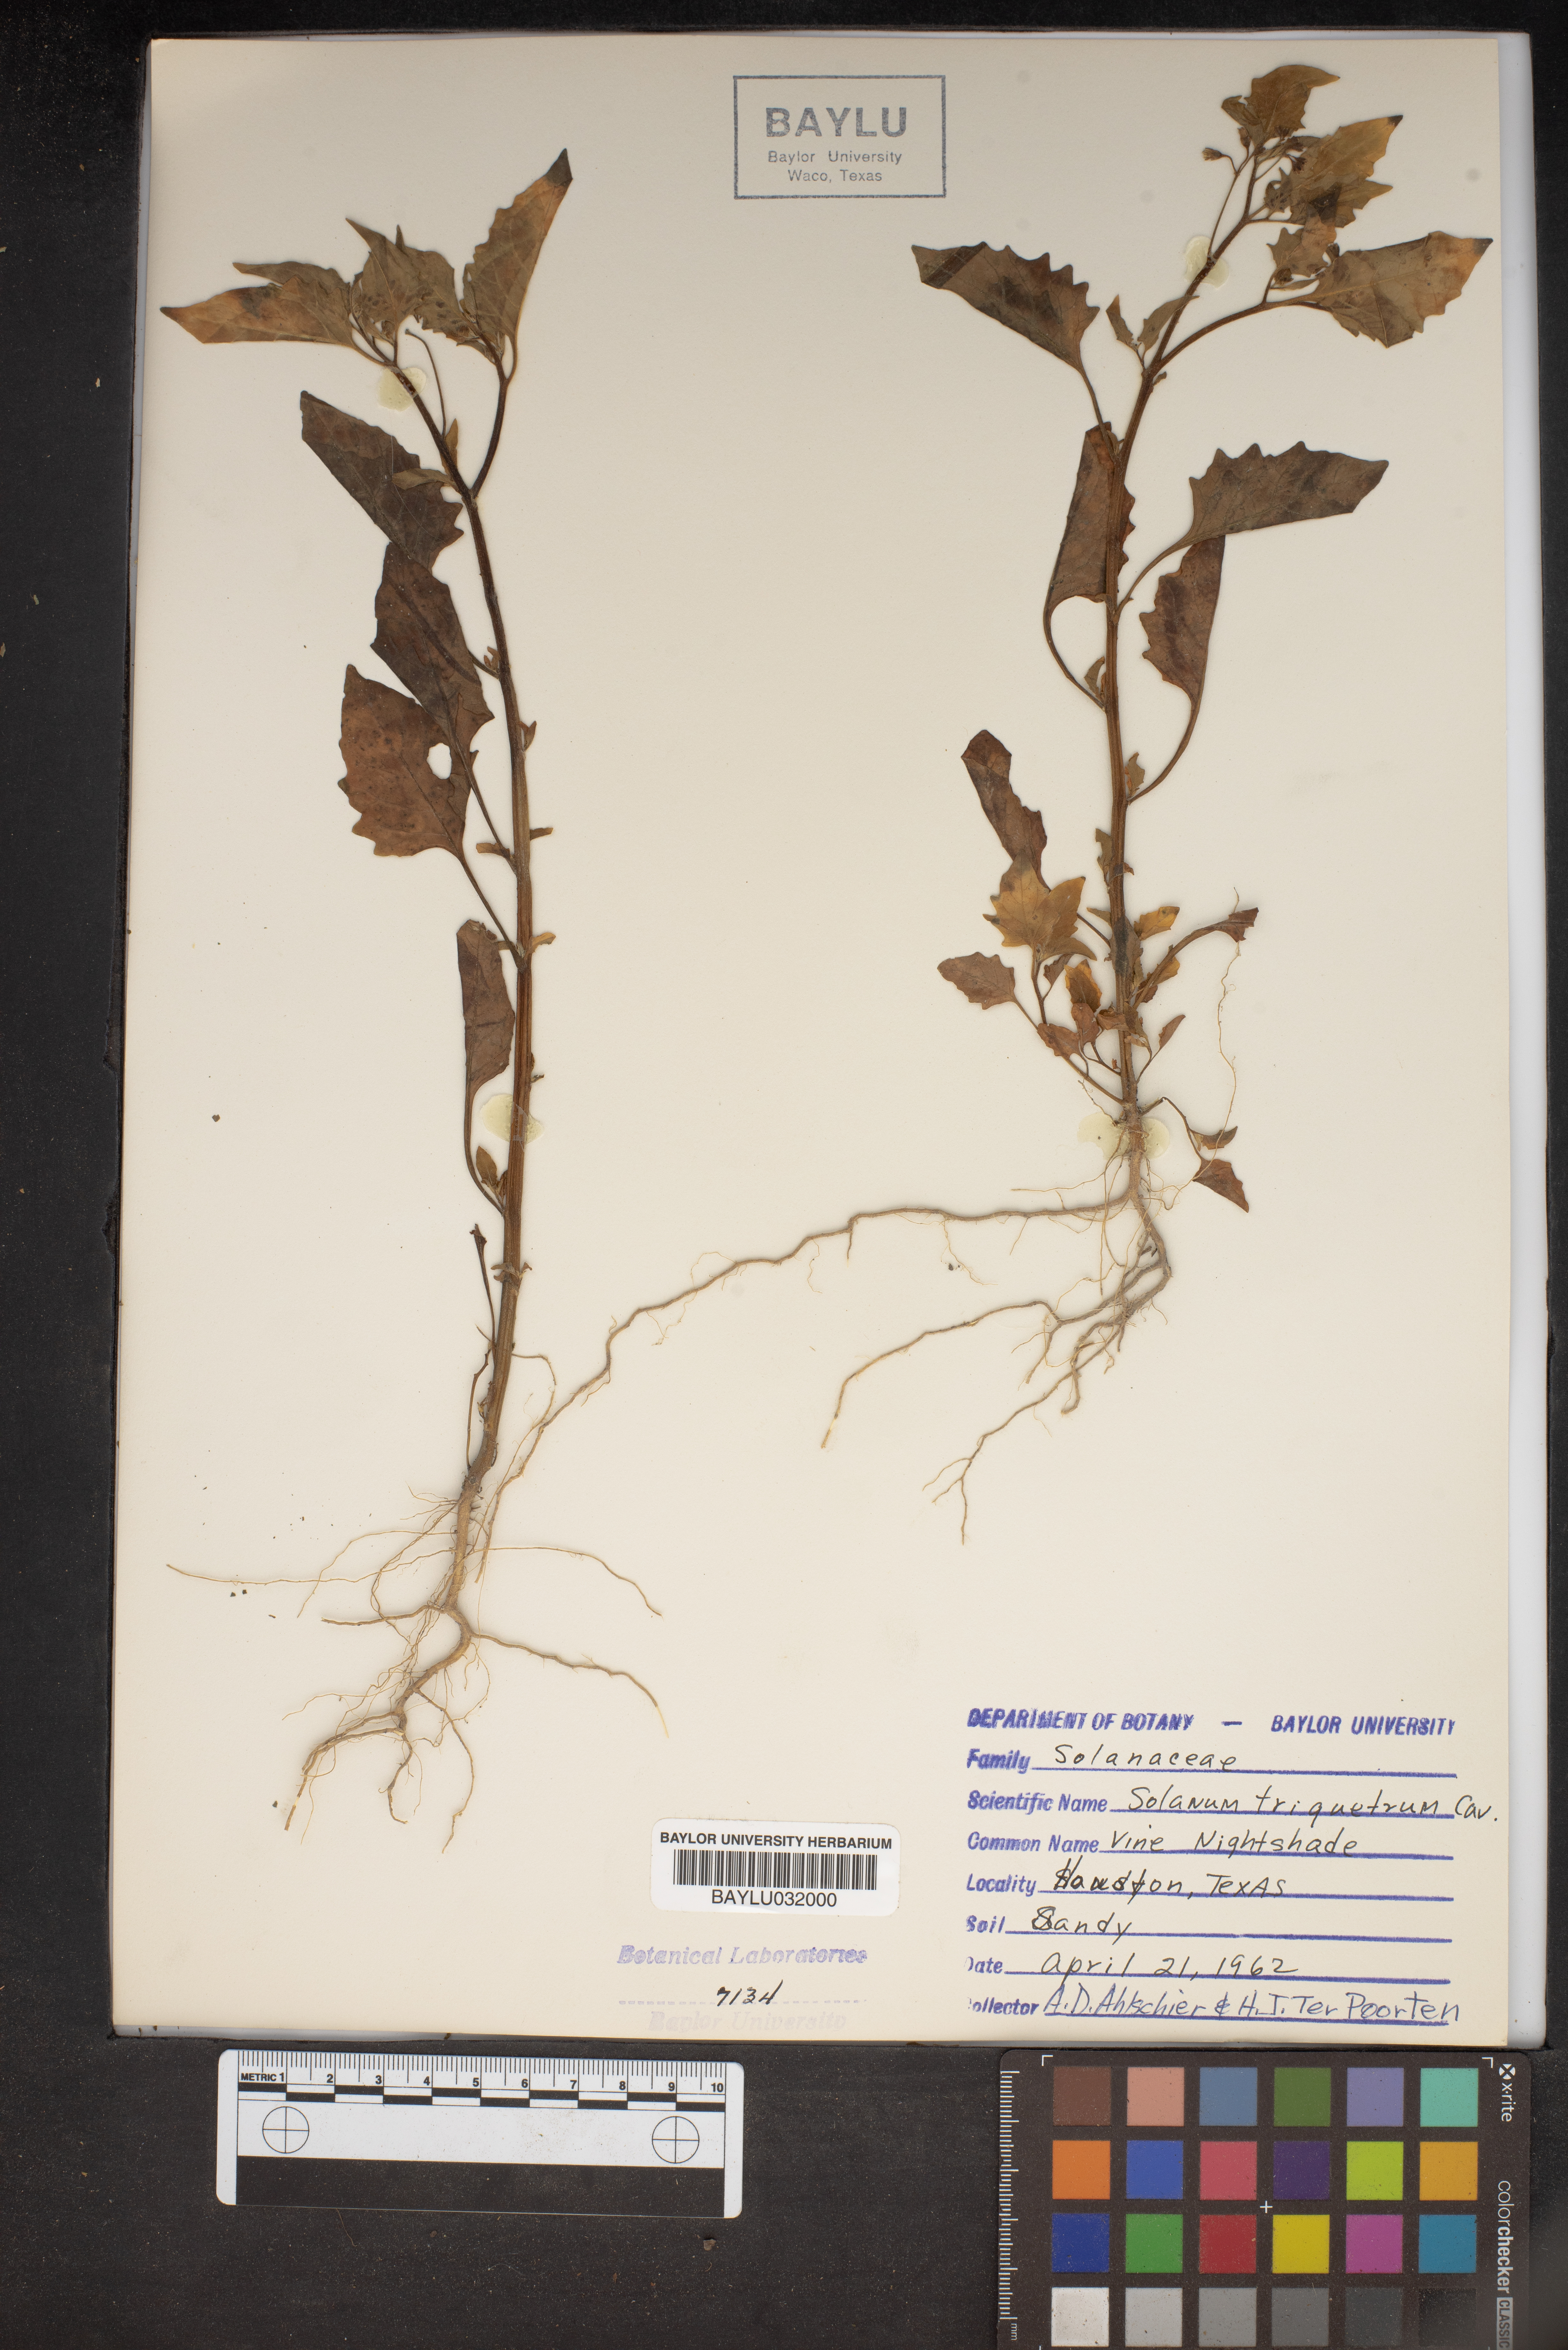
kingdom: Plantae
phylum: Tracheophyta
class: Magnoliopsida
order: Solanales
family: Solanaceae
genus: Solanum
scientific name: Solanum triquetrum
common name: Texas nightshade
